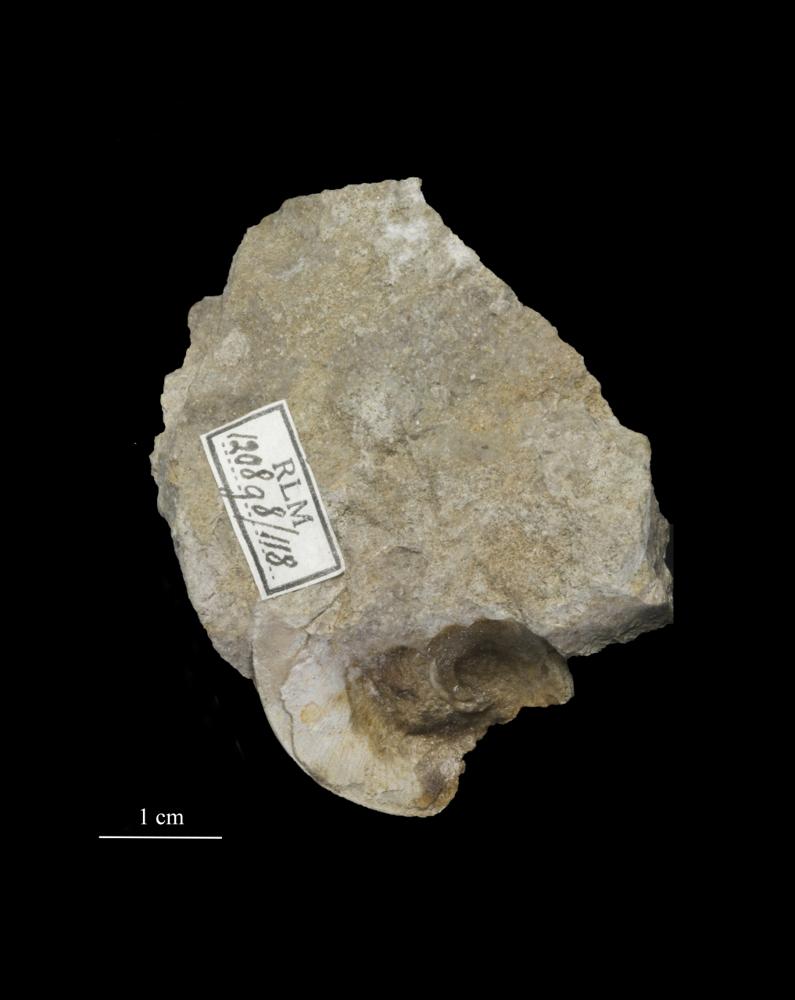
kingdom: Animalia
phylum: Mollusca
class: Gastropoda
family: Lesueurillidae
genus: Eccyliopterus
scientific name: Eccyliopterus regularis
